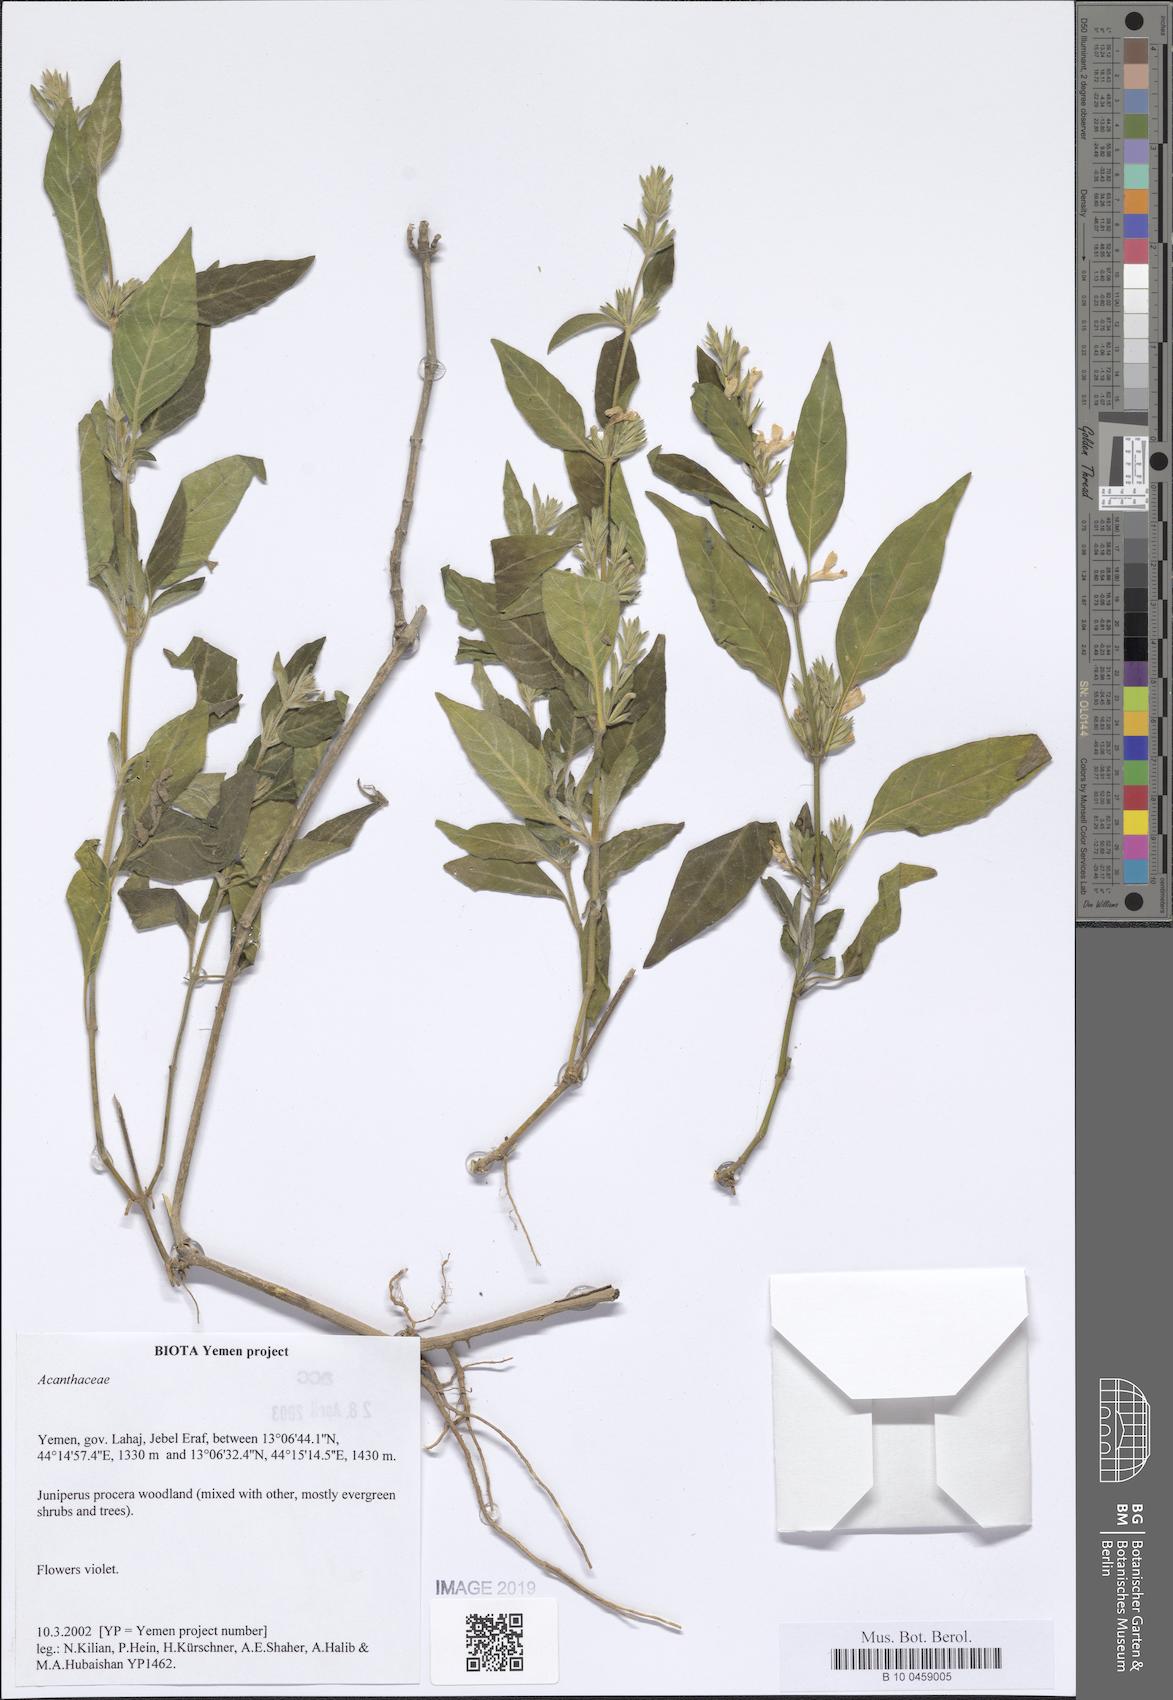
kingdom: Plantae
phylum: Tracheophyta
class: Magnoliopsida
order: Lamiales
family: Acanthaceae
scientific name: Acanthaceae
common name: Acanthaceae
